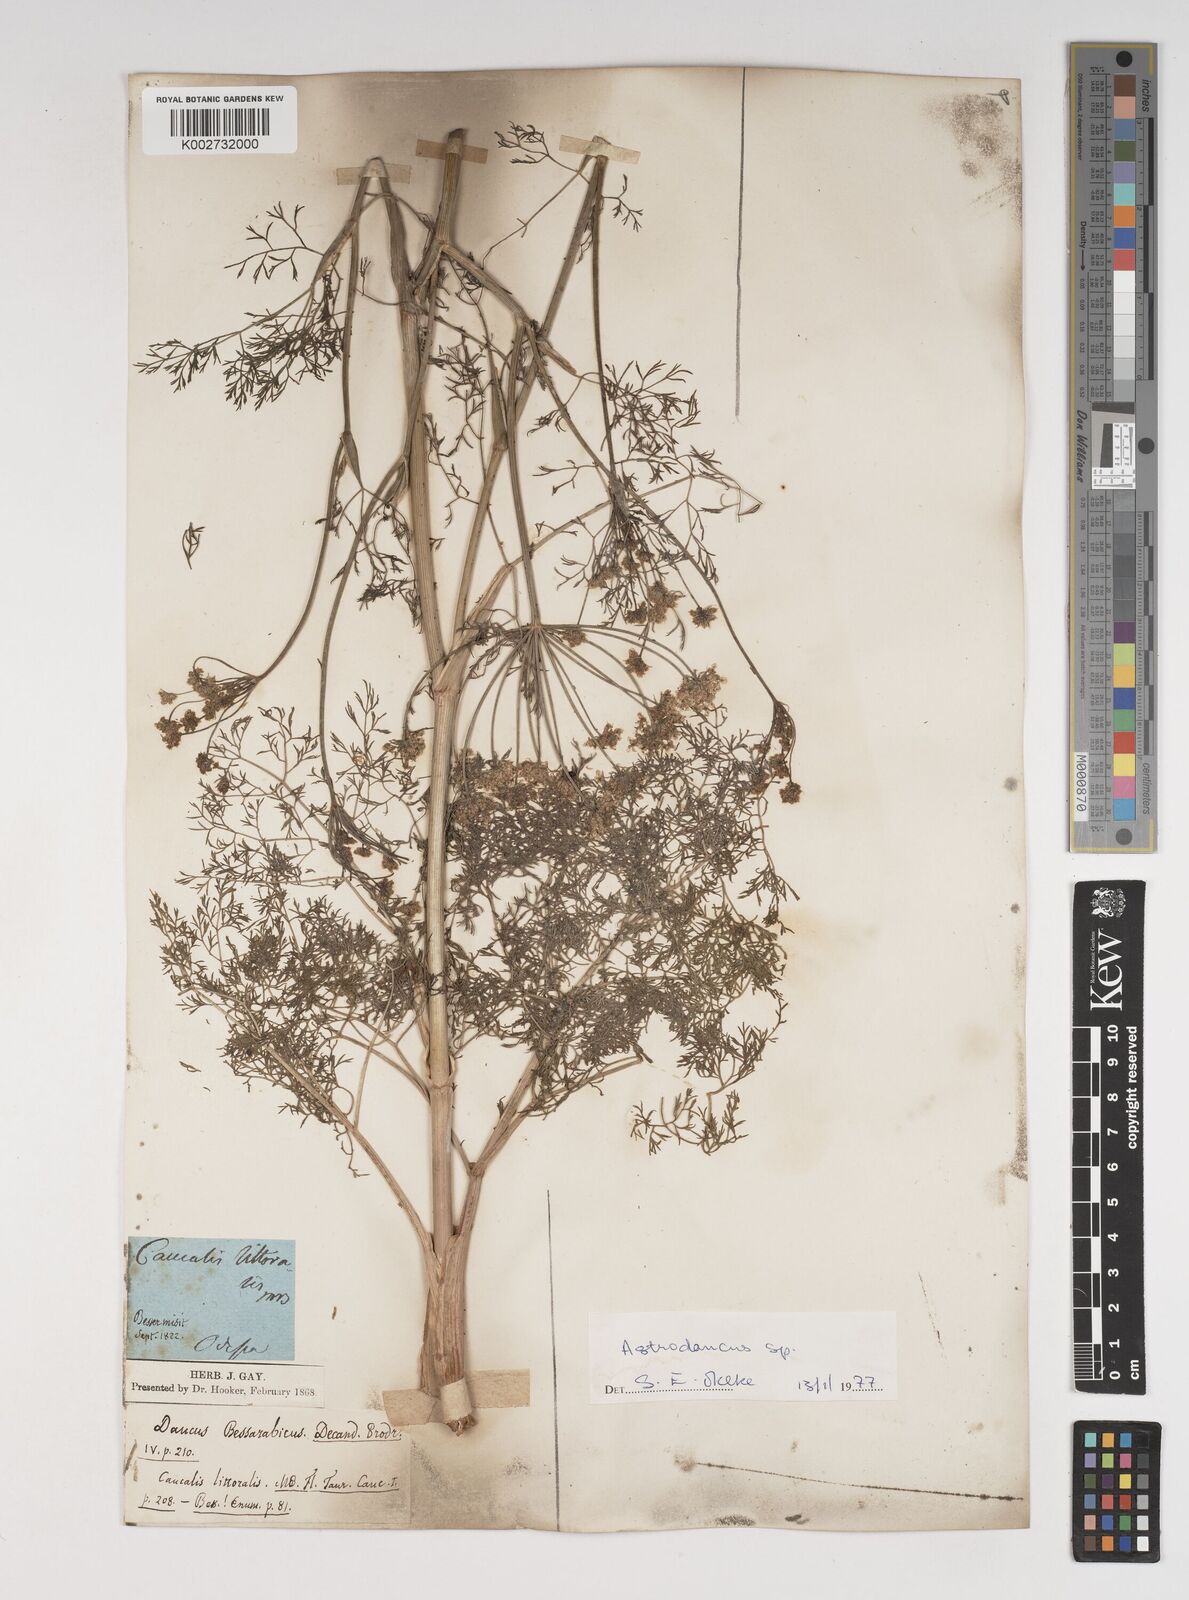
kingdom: Plantae
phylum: Tracheophyta
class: Magnoliopsida
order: Apiales
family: Apiaceae
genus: Astrodaucus
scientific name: Astrodaucus littoralis
